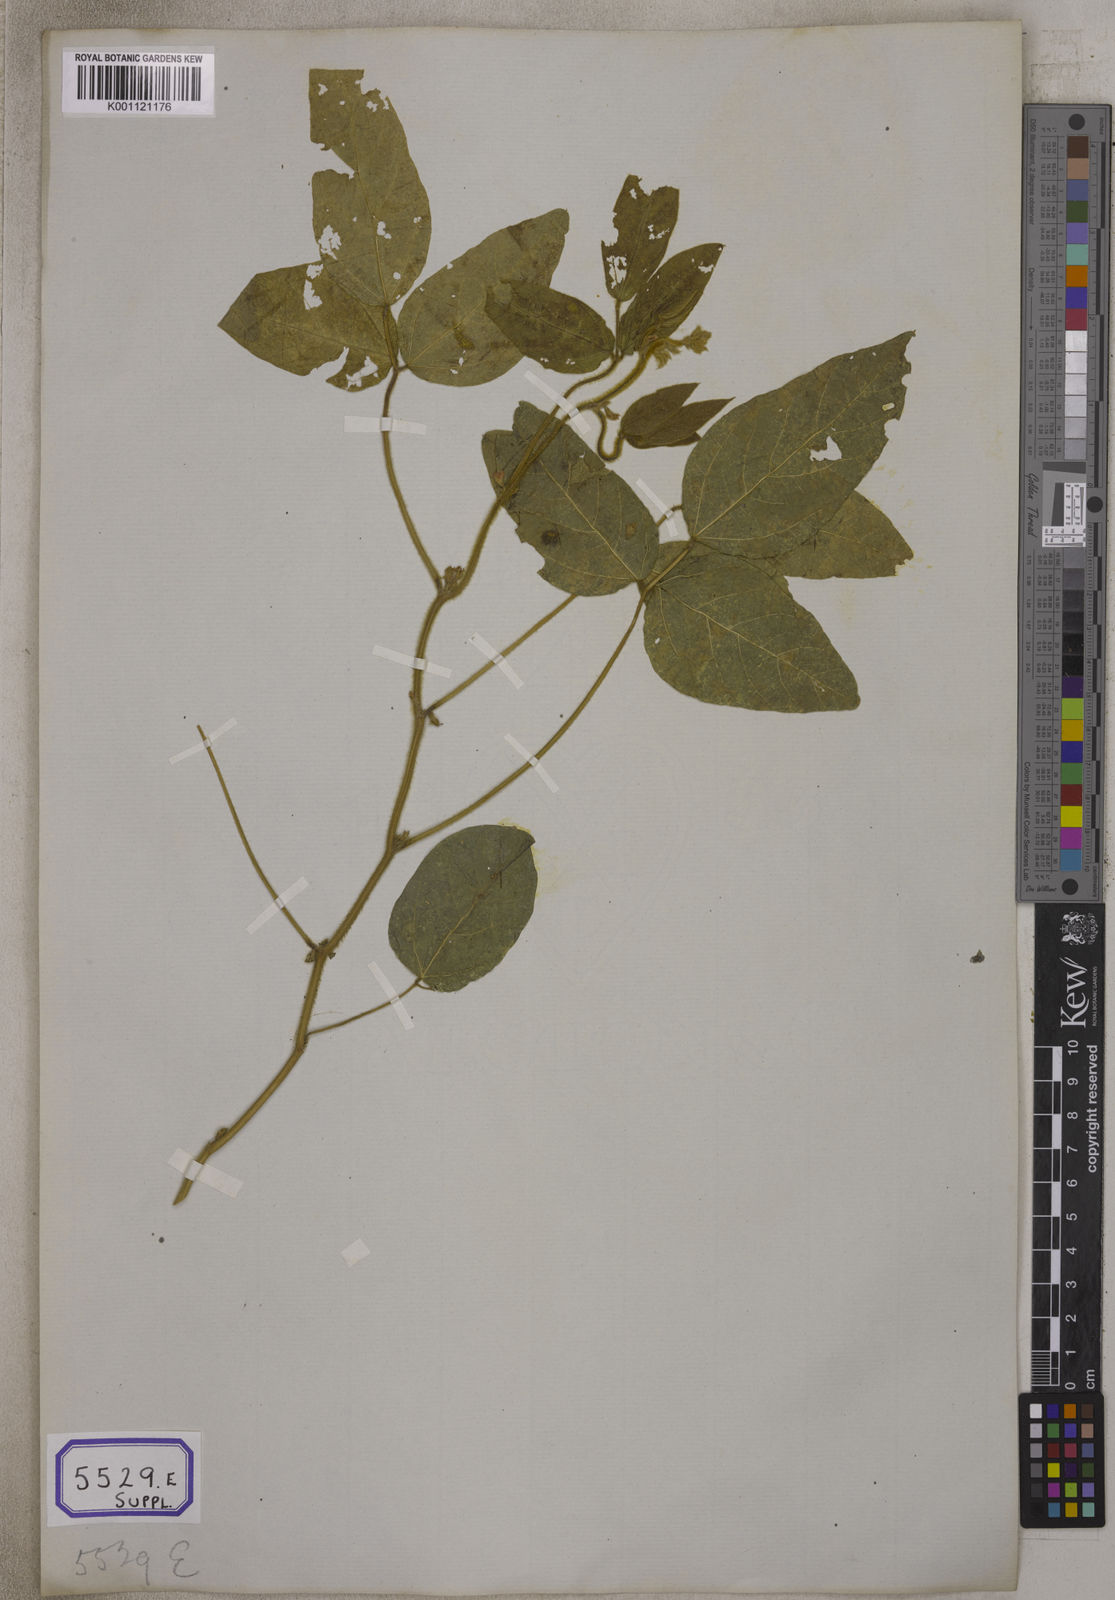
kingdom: Plantae
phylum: Tracheophyta
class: Magnoliopsida
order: Fabales
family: Fabaceae
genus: Glycine
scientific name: Glycine max
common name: Soya-bean
